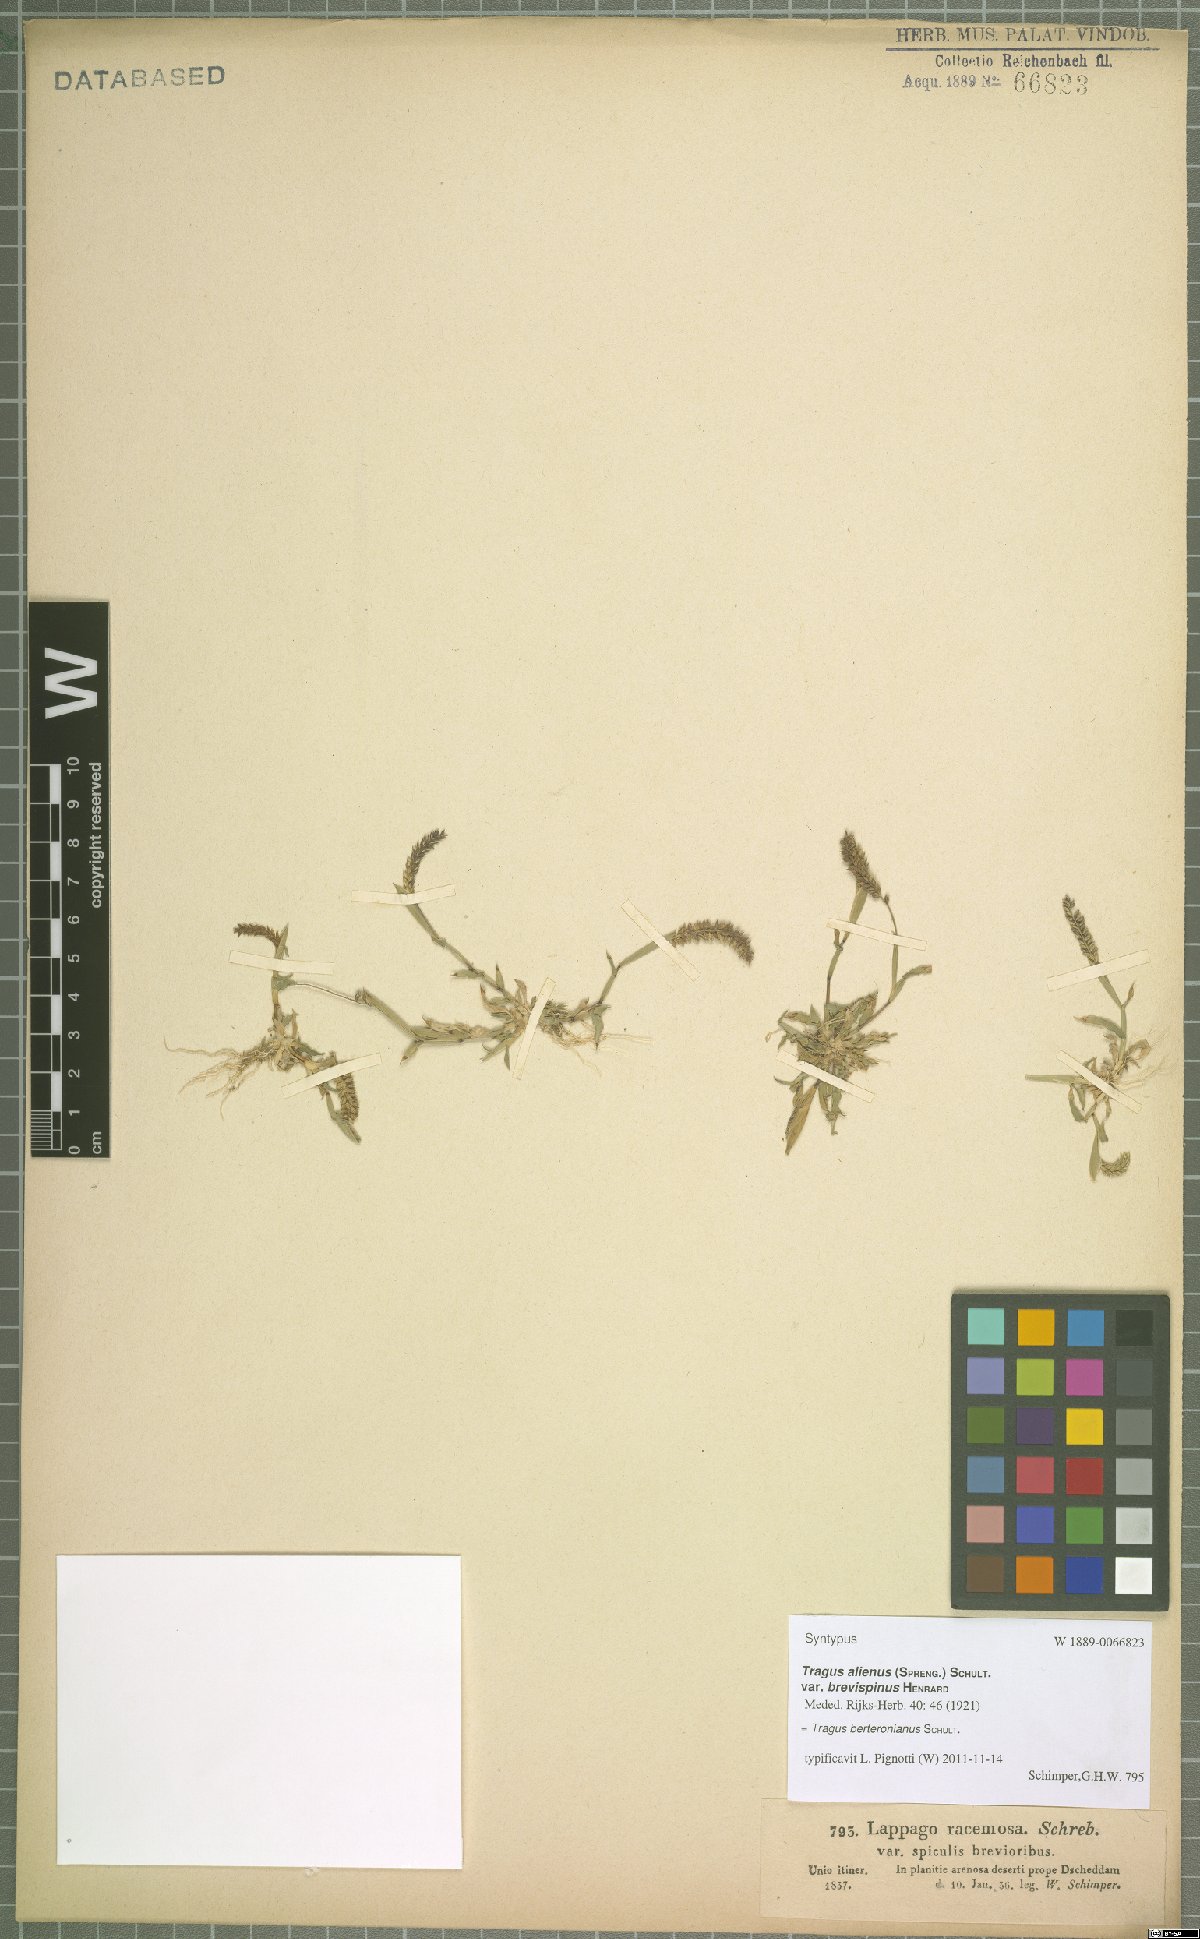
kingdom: Plantae
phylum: Tracheophyta
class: Liliopsida
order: Poales
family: Poaceae
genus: Tragus
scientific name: Tragus berteronianus
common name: African bur-grass
